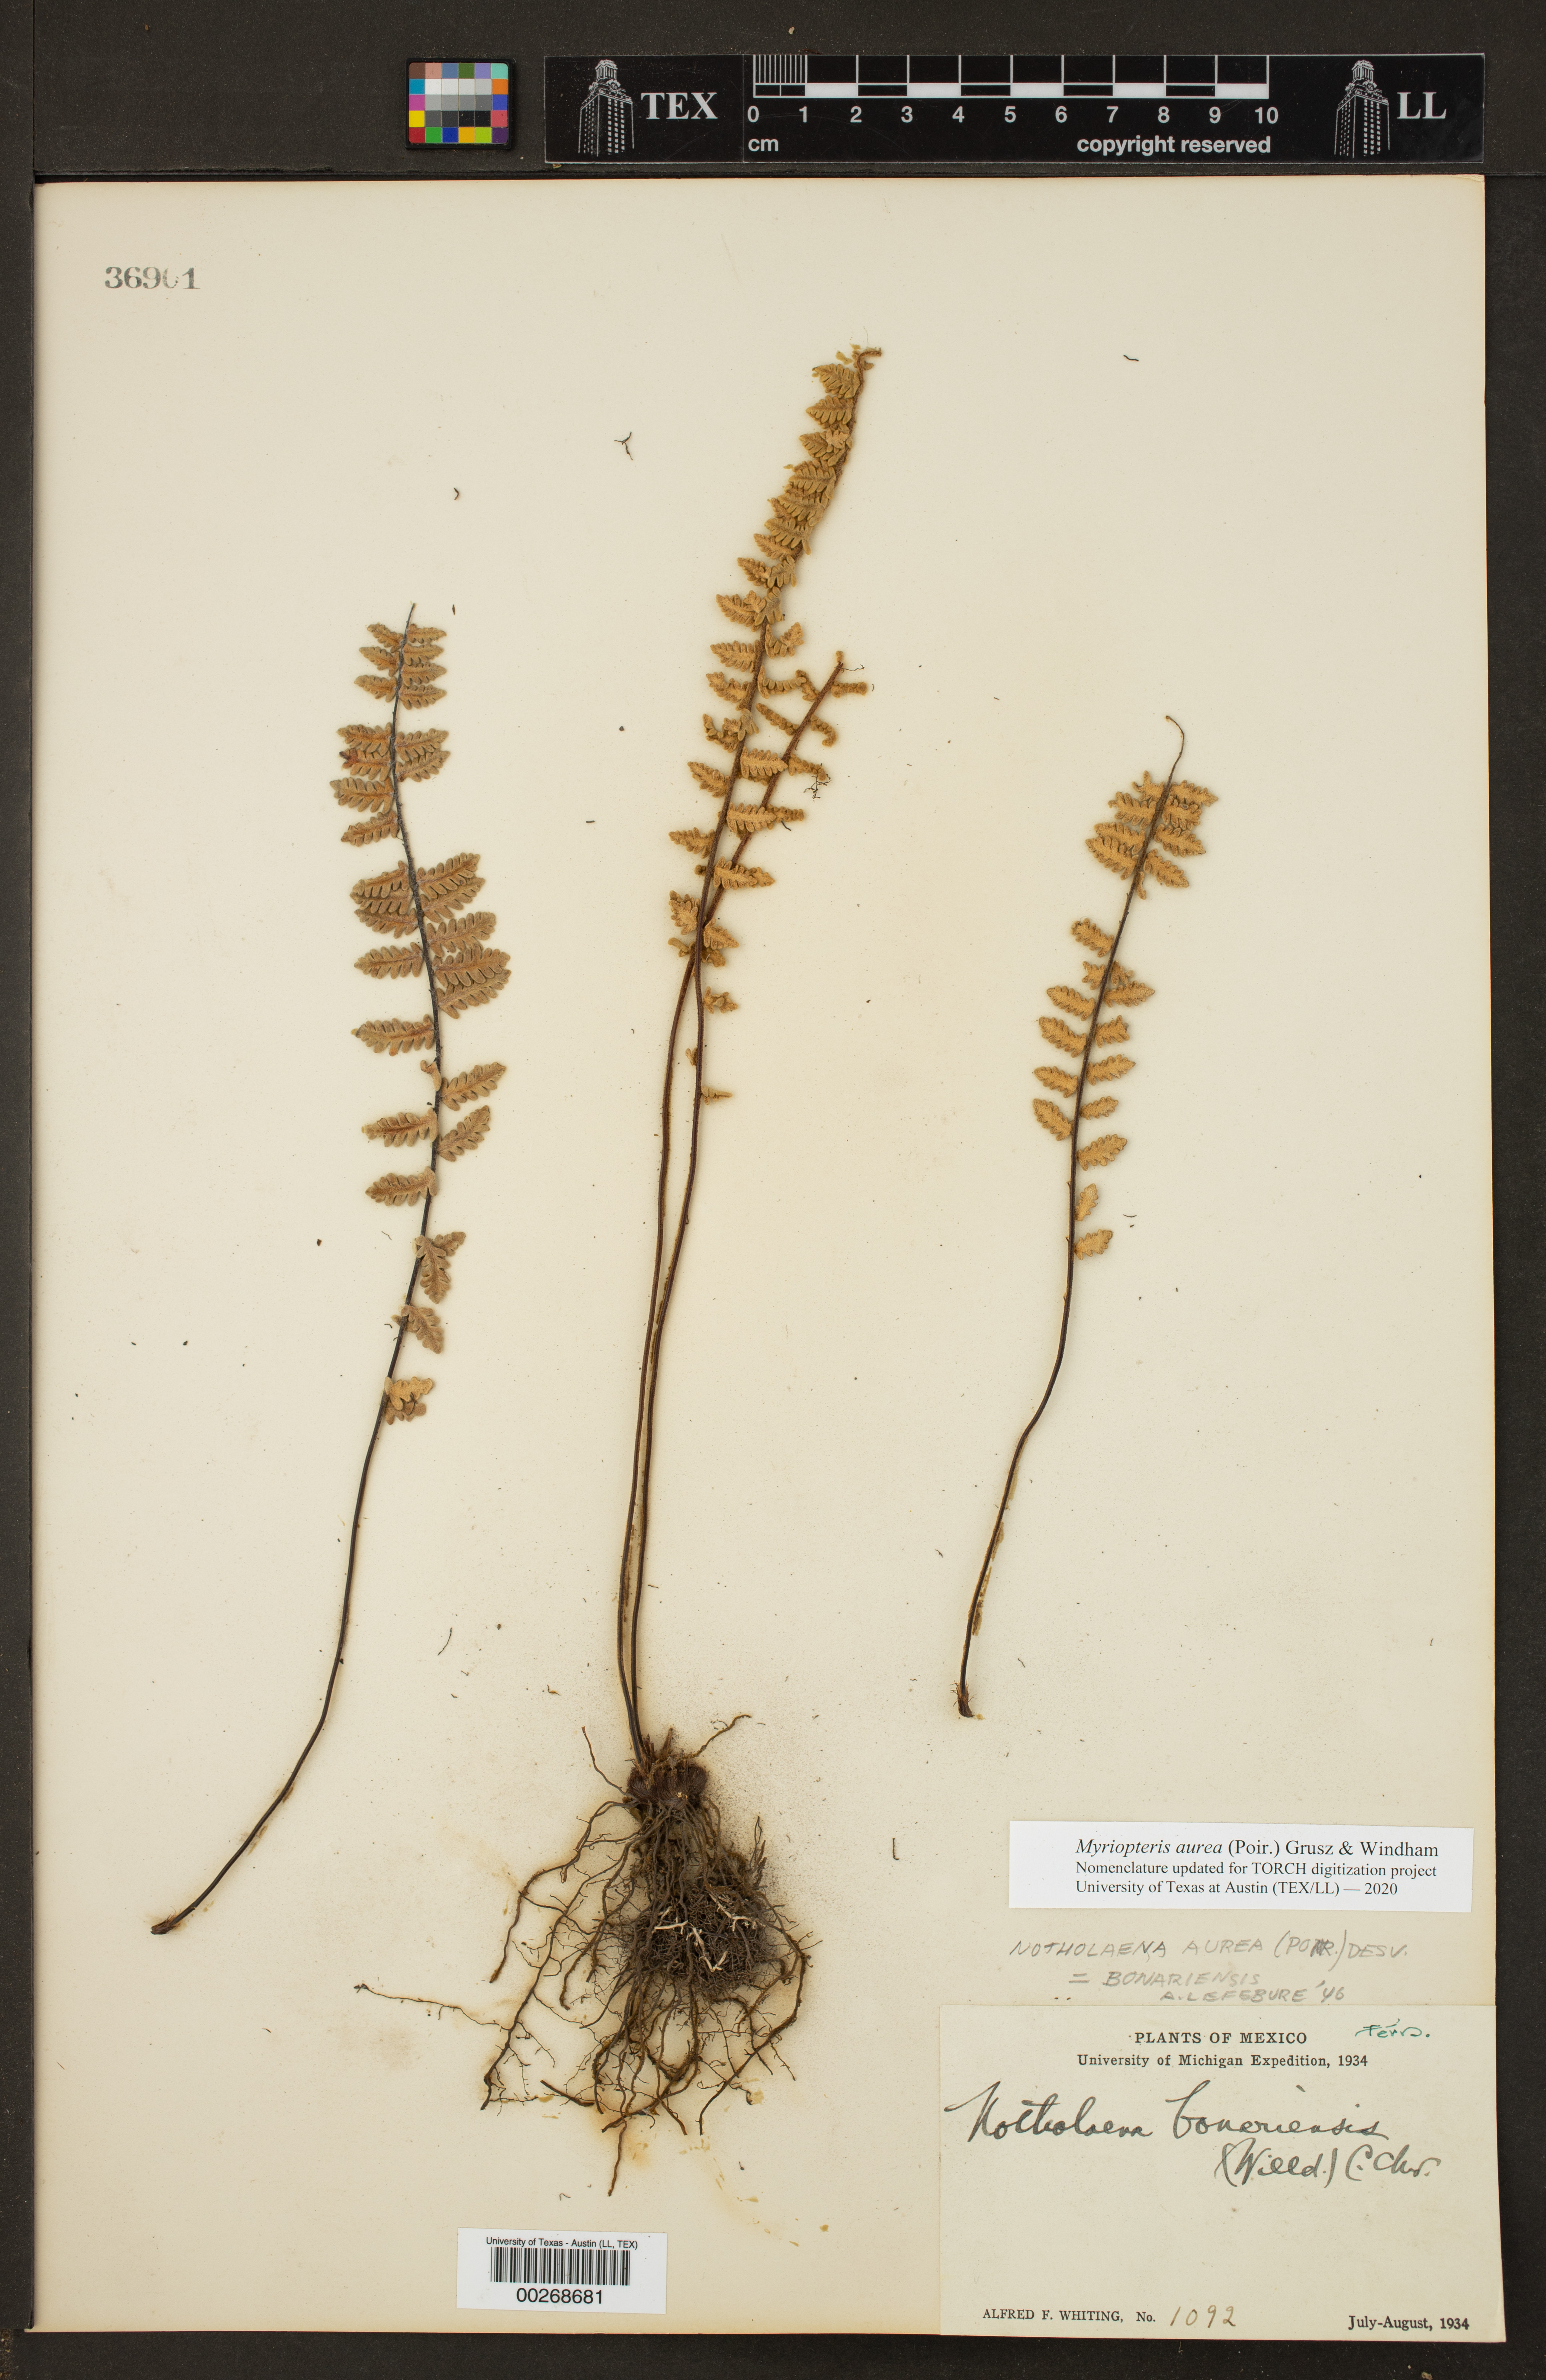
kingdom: Plantae
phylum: Tracheophyta
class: Polypodiopsida
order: Polypodiales
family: Pteridaceae
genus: Myriopteris
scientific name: Myriopteris aurea
